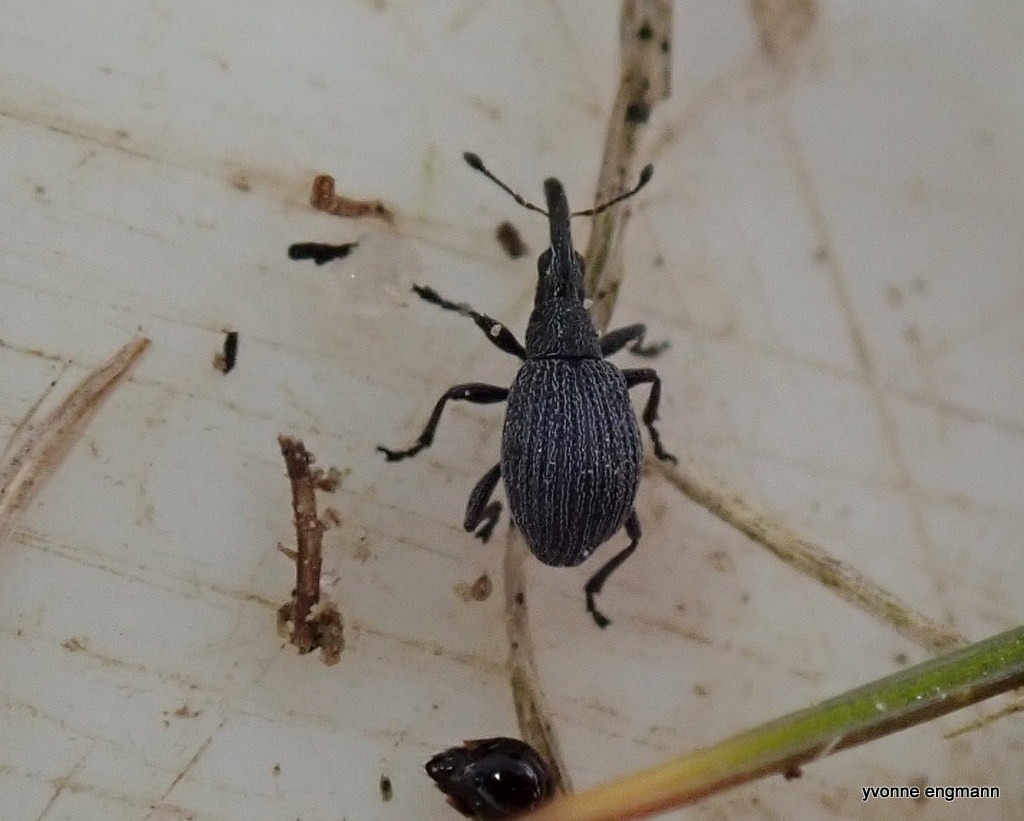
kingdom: Animalia
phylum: Arthropoda
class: Insecta
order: Coleoptera
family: Apionidae
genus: Holotrichapion
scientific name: Holotrichapion ononis
